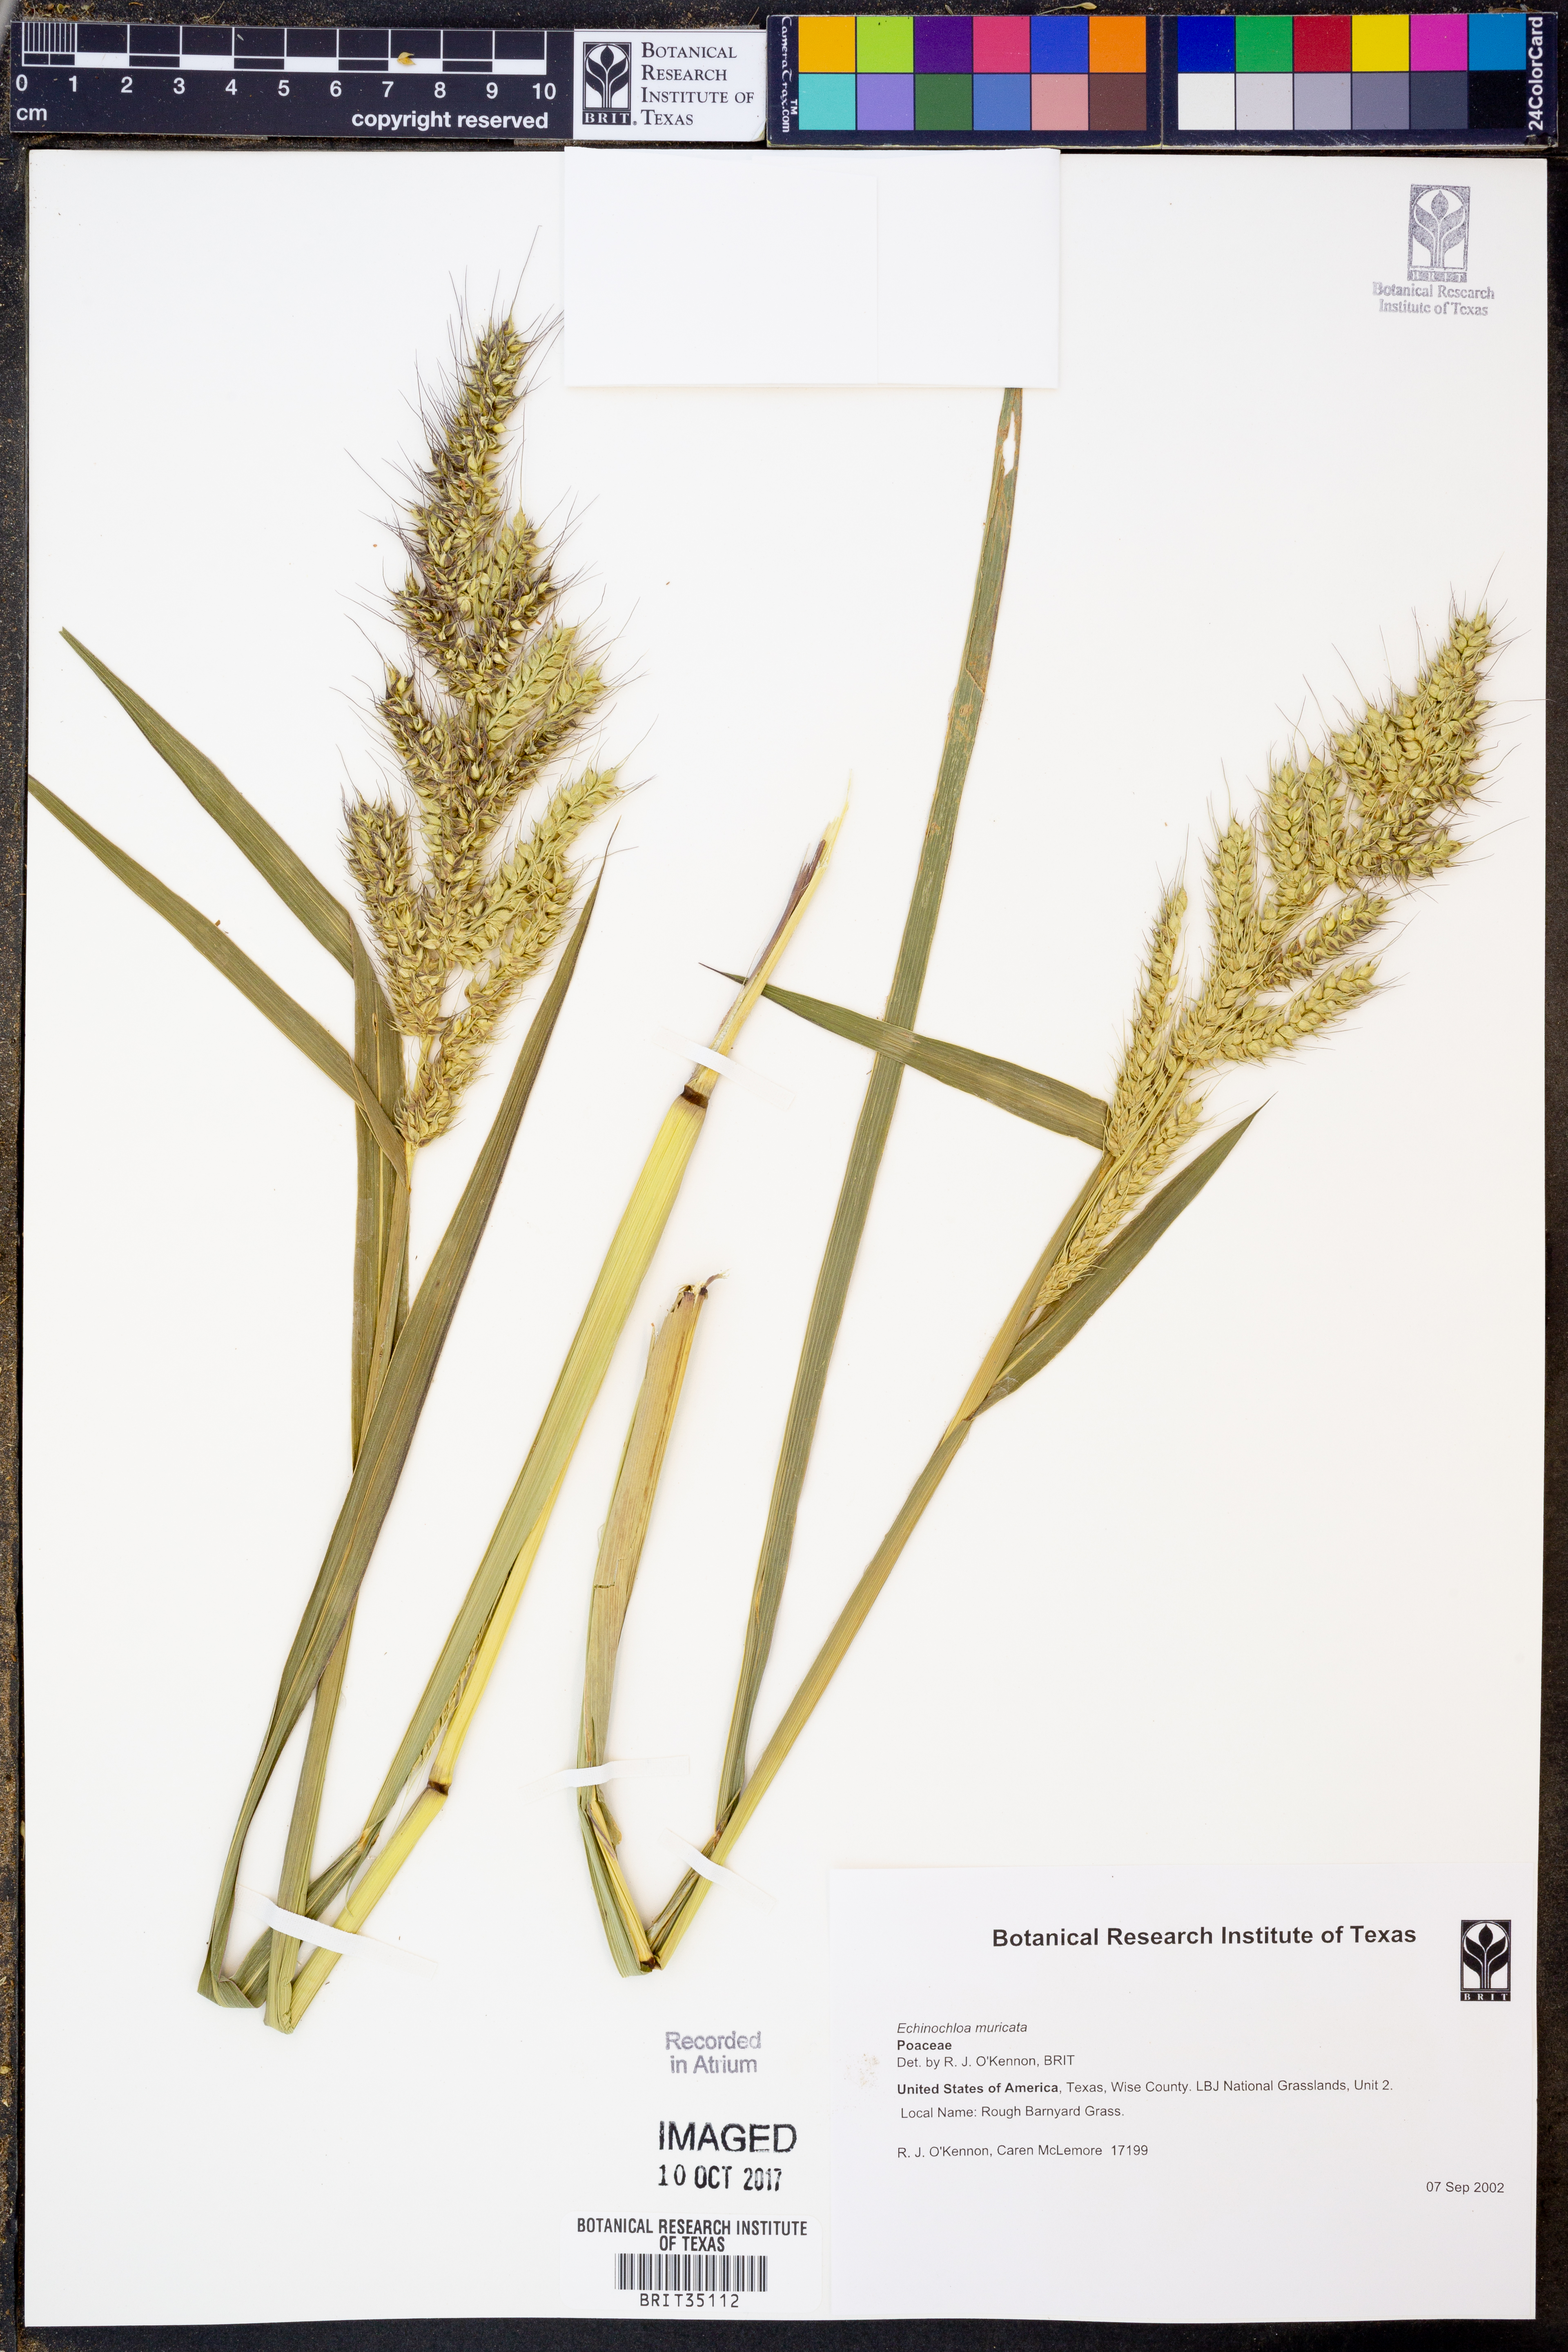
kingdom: Plantae
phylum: Tracheophyta
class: Liliopsida
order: Poales
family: Poaceae
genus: Echinochloa
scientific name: Echinochloa muricata
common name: American barnyard grass
